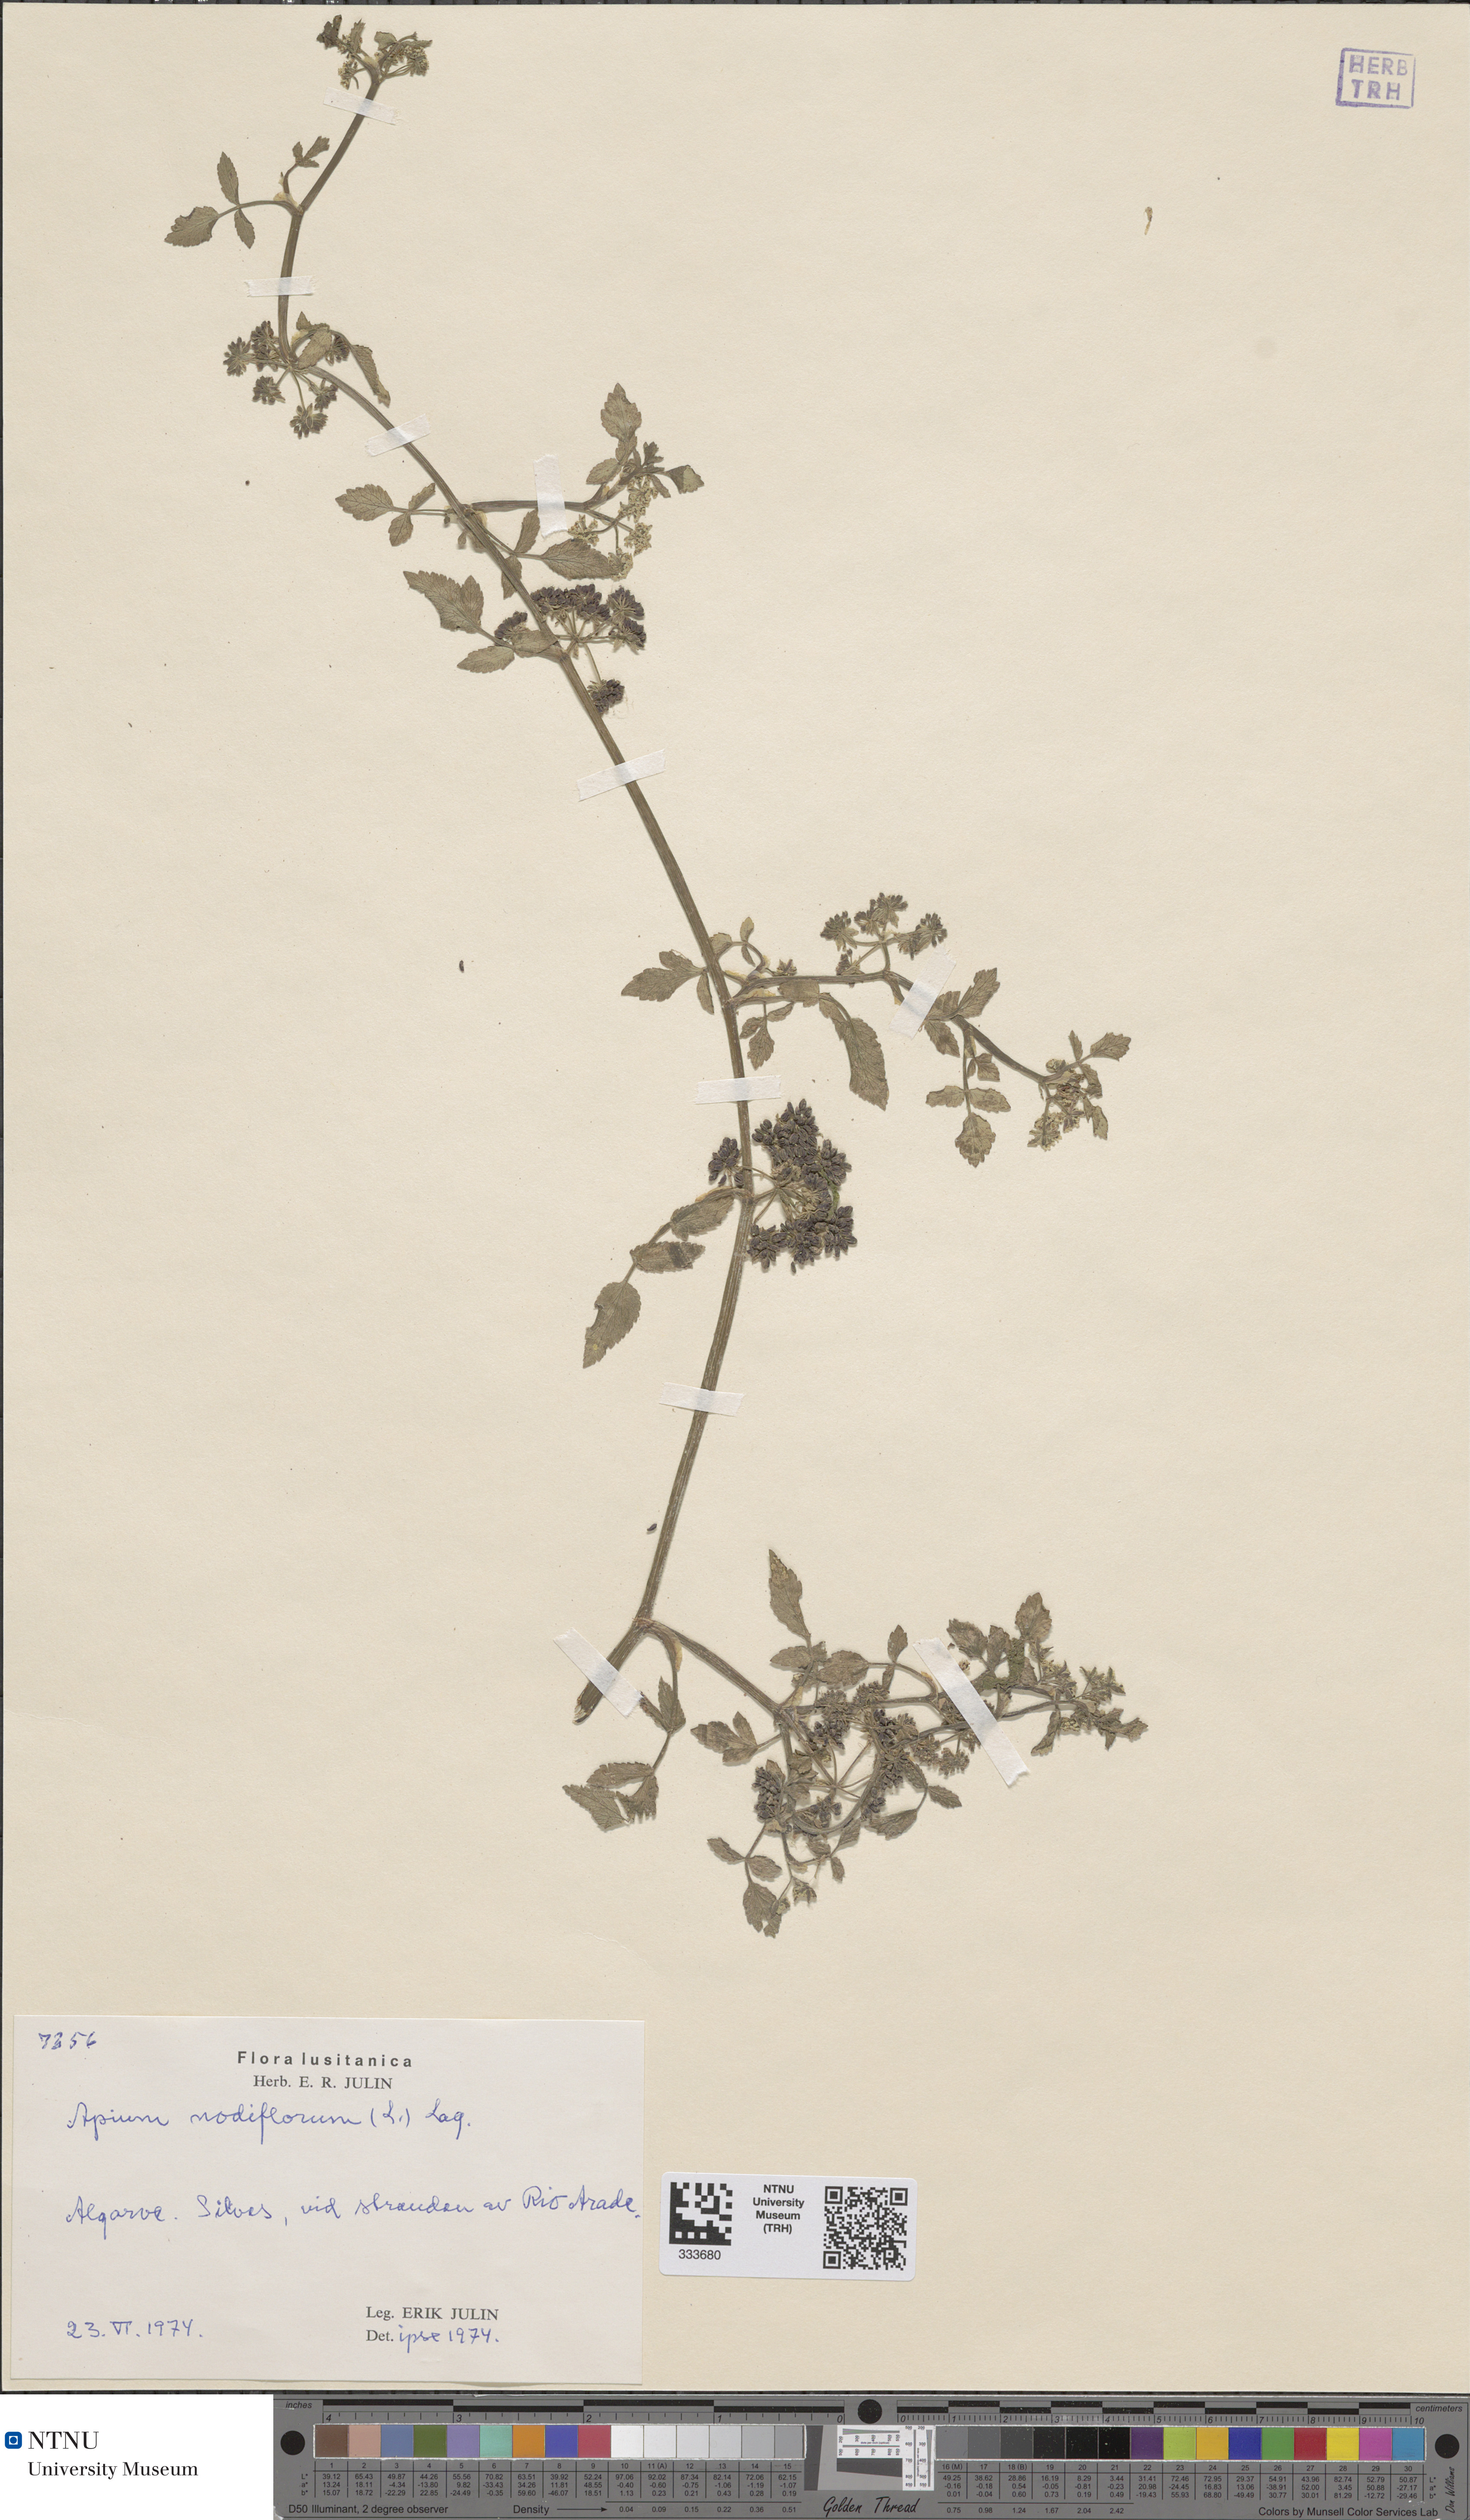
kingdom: Plantae
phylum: Tracheophyta
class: Magnoliopsida
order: Apiales
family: Apiaceae
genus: Helosciadium
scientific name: Helosciadium nodiflorum
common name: Fool's-watercress
